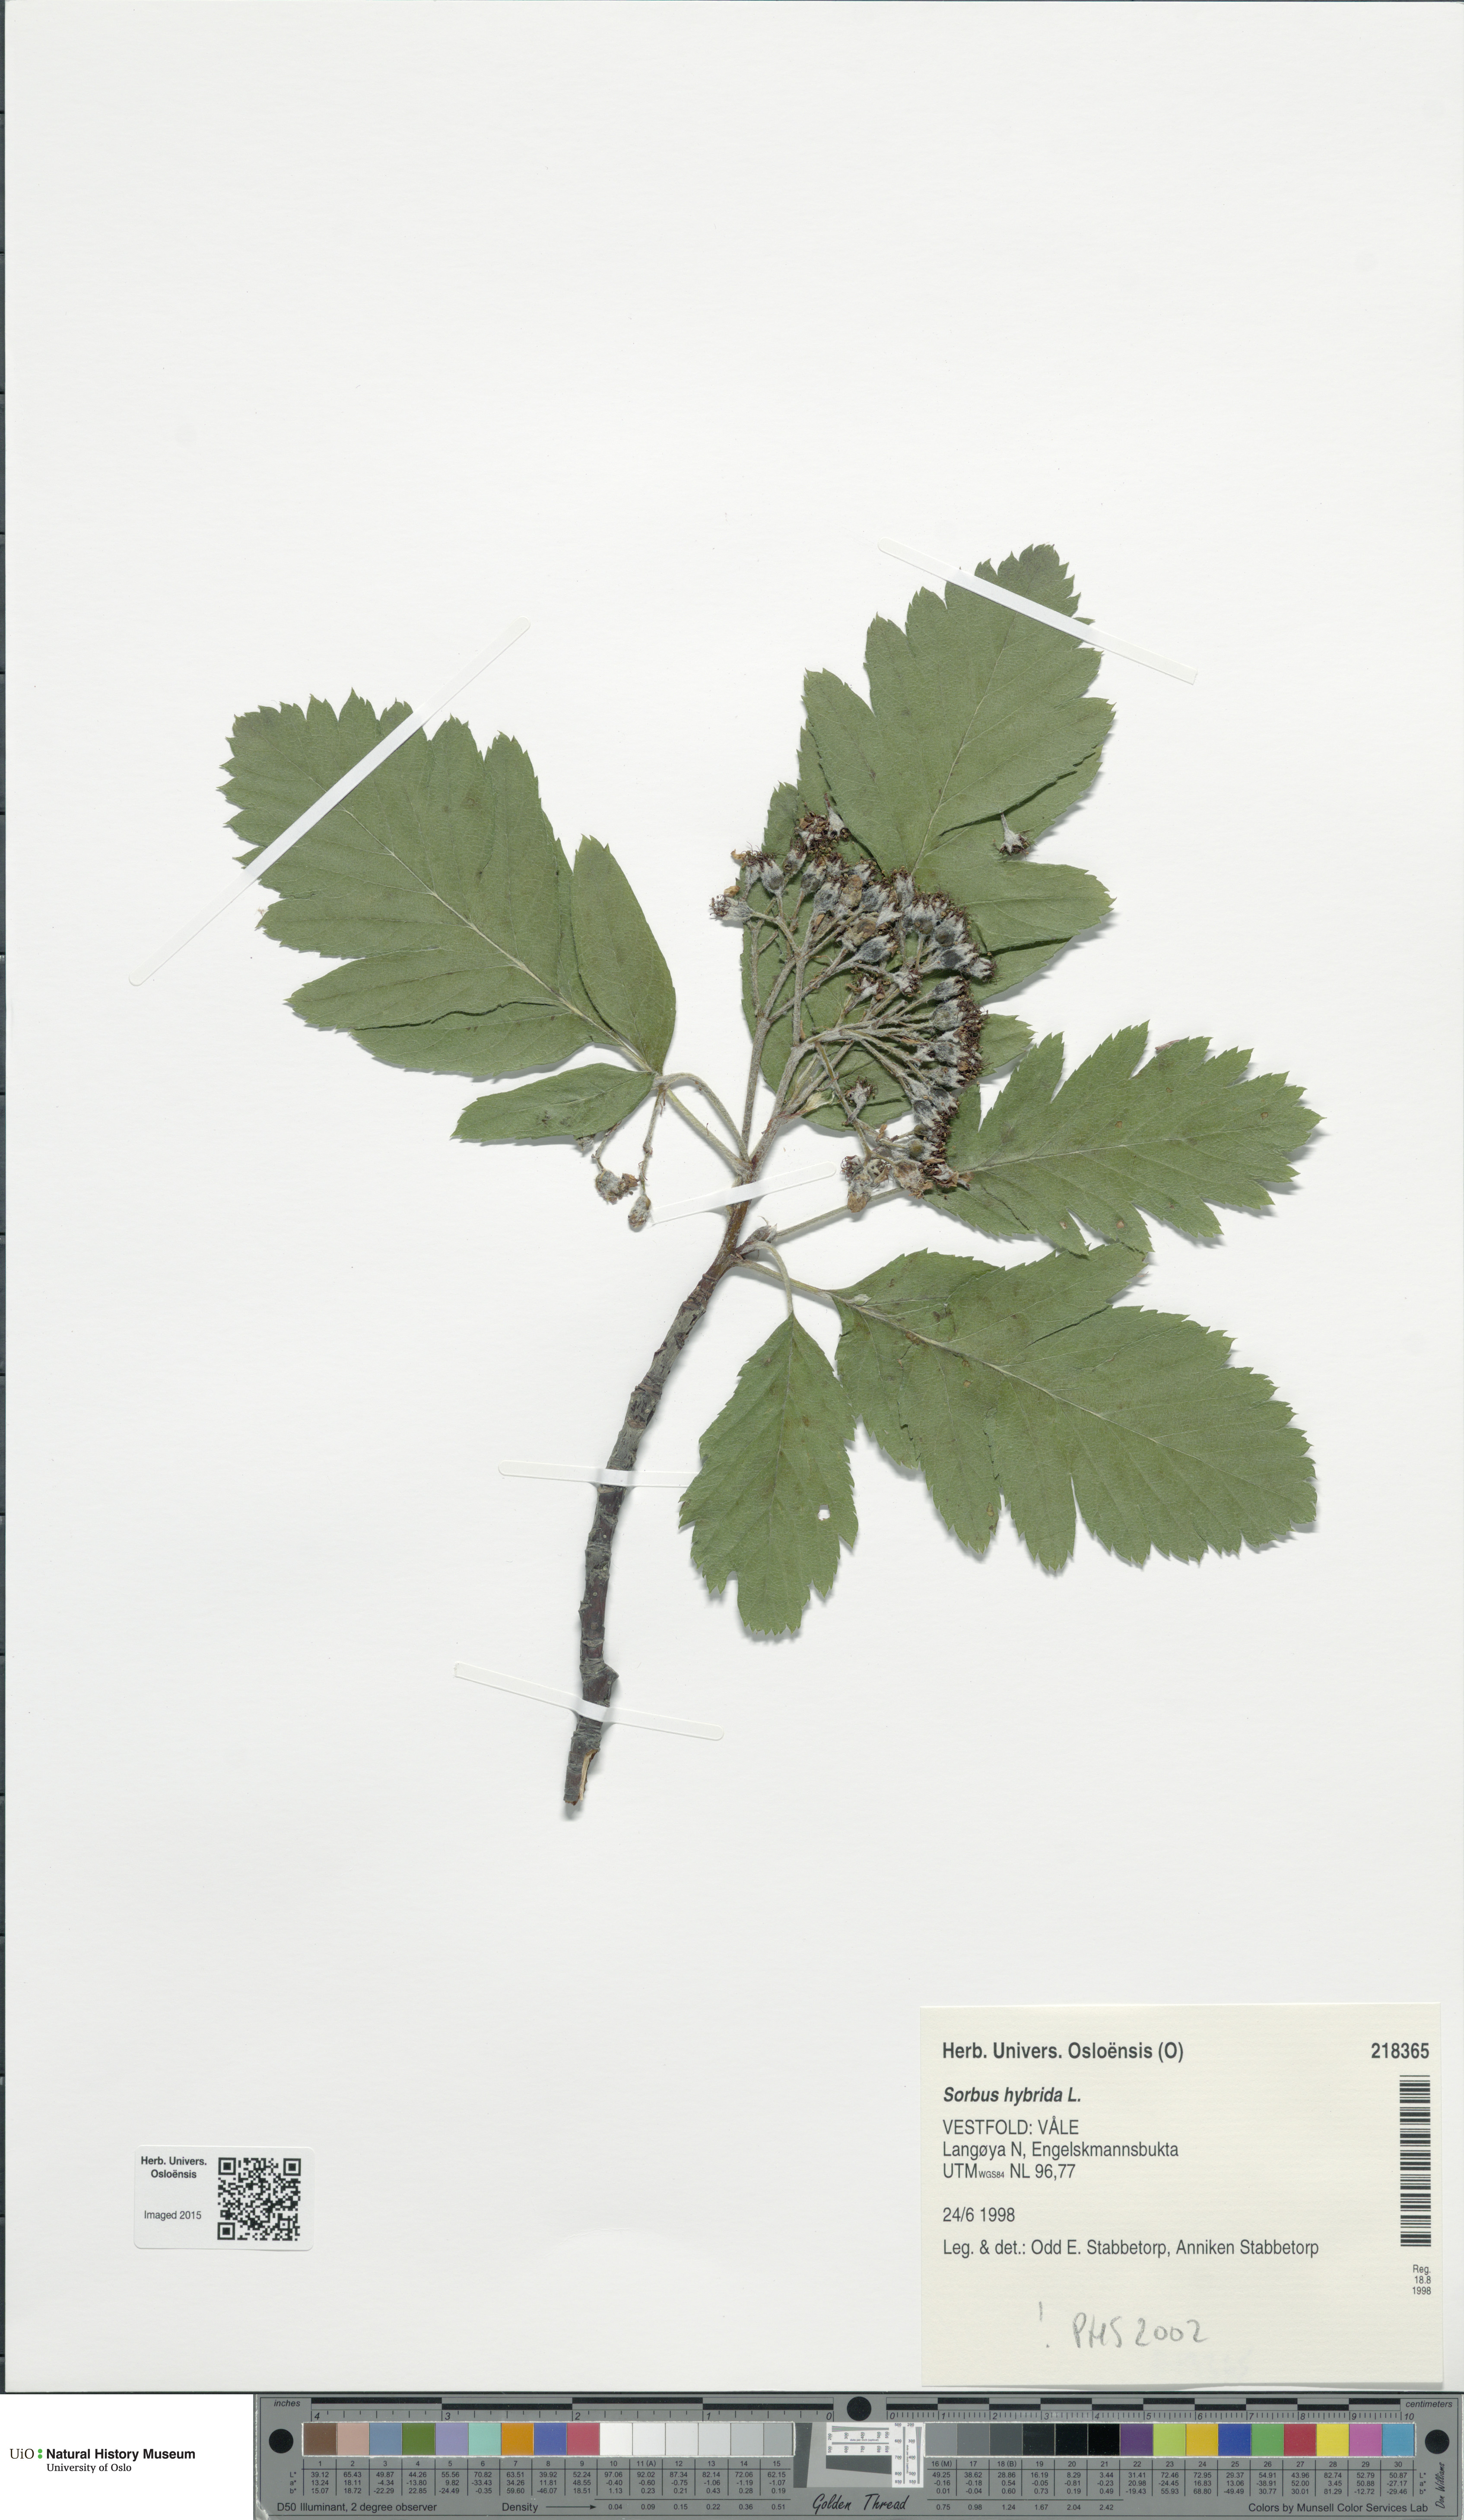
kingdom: Plantae
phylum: Tracheophyta
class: Magnoliopsida
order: Rosales
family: Rosaceae
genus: Hedlundia
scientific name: Hedlundia hybrida
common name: Swedish service-tree
